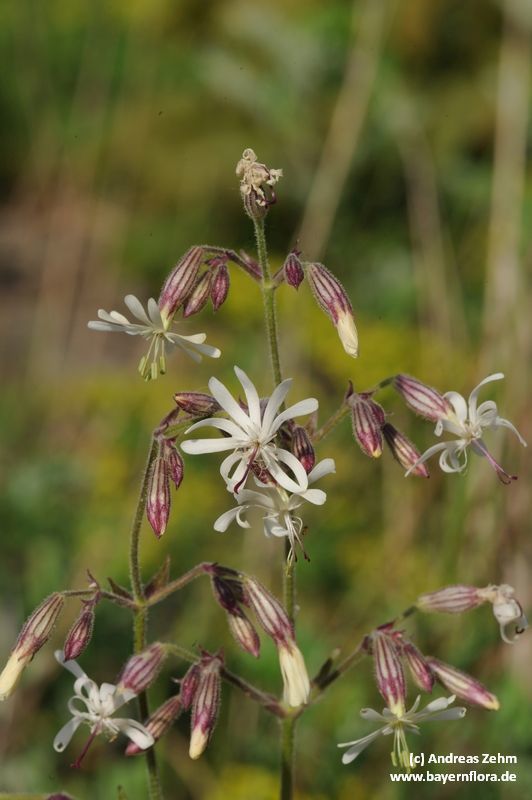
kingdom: Plantae
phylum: Tracheophyta
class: Magnoliopsida
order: Caryophyllales
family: Caryophyllaceae
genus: Silene
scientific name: Silene nutans
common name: Nottingham catchfly
